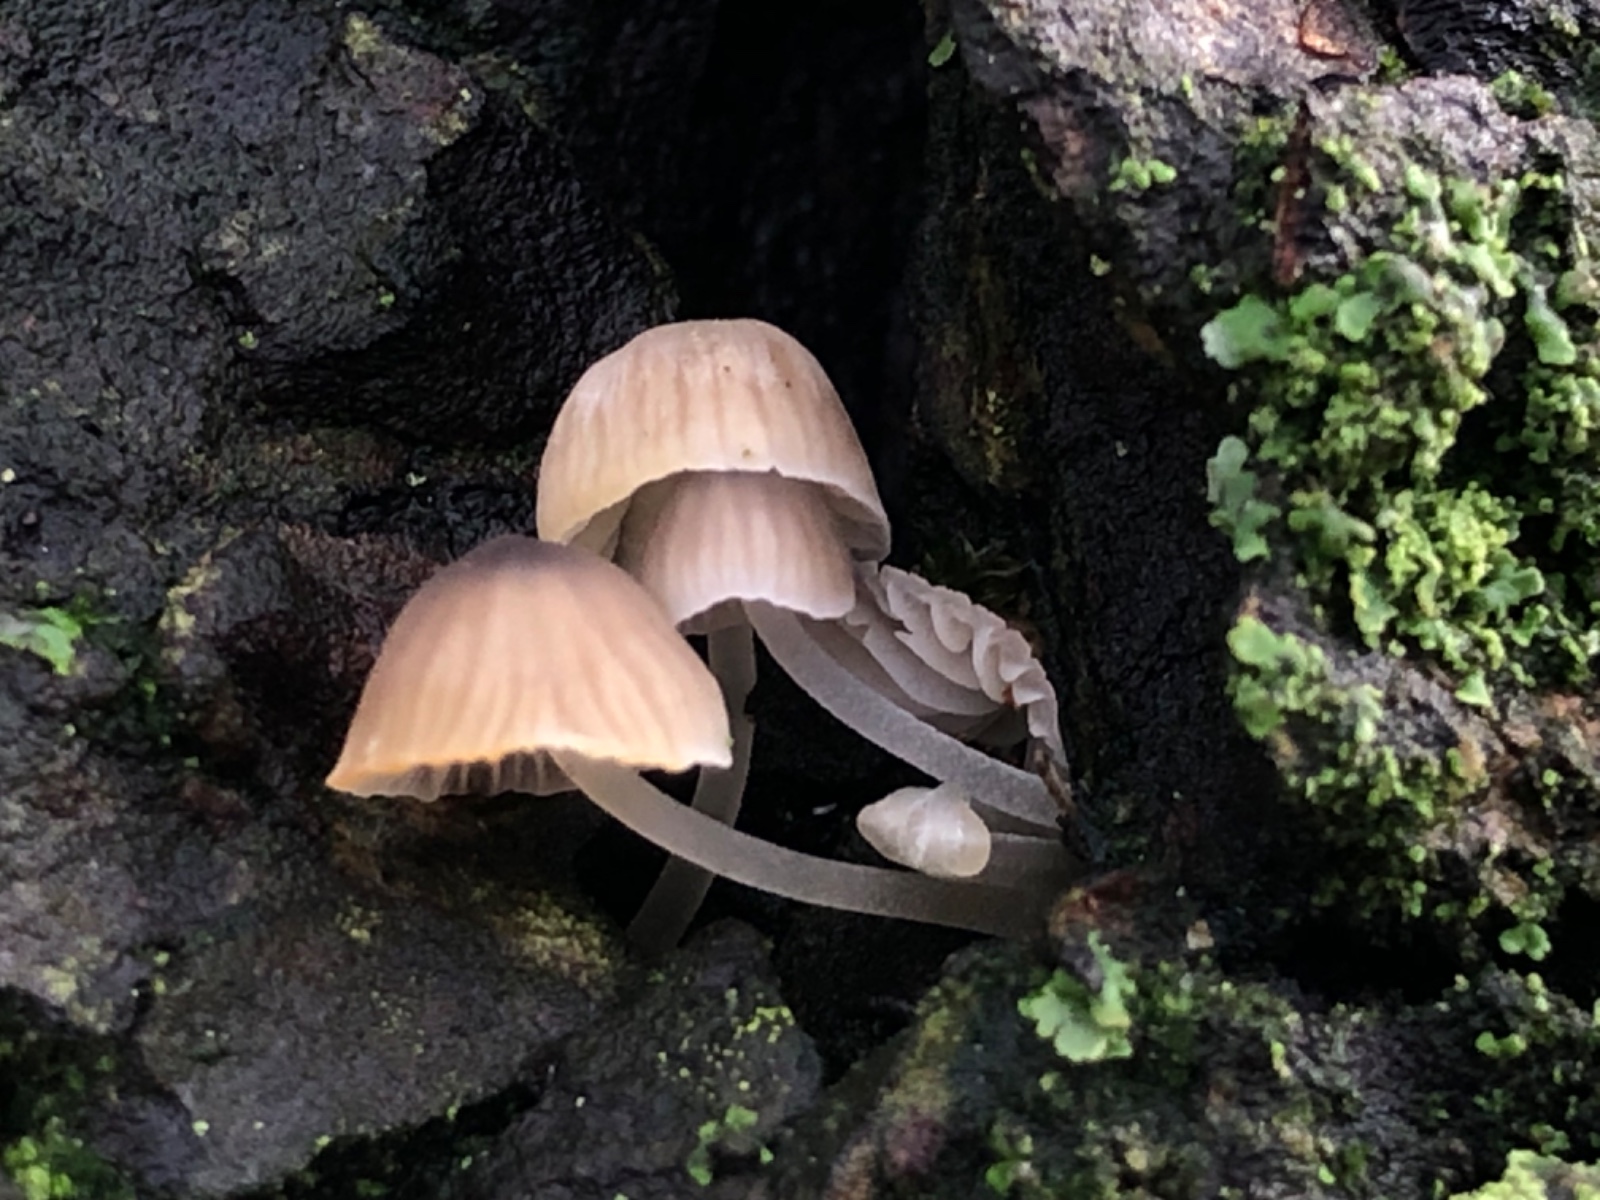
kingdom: Fungi
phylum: Basidiomycota
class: Agaricomycetes
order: Agaricales
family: Porotheleaceae
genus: Phloeomana
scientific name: Phloeomana hiemalis
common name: sen huesvamp
